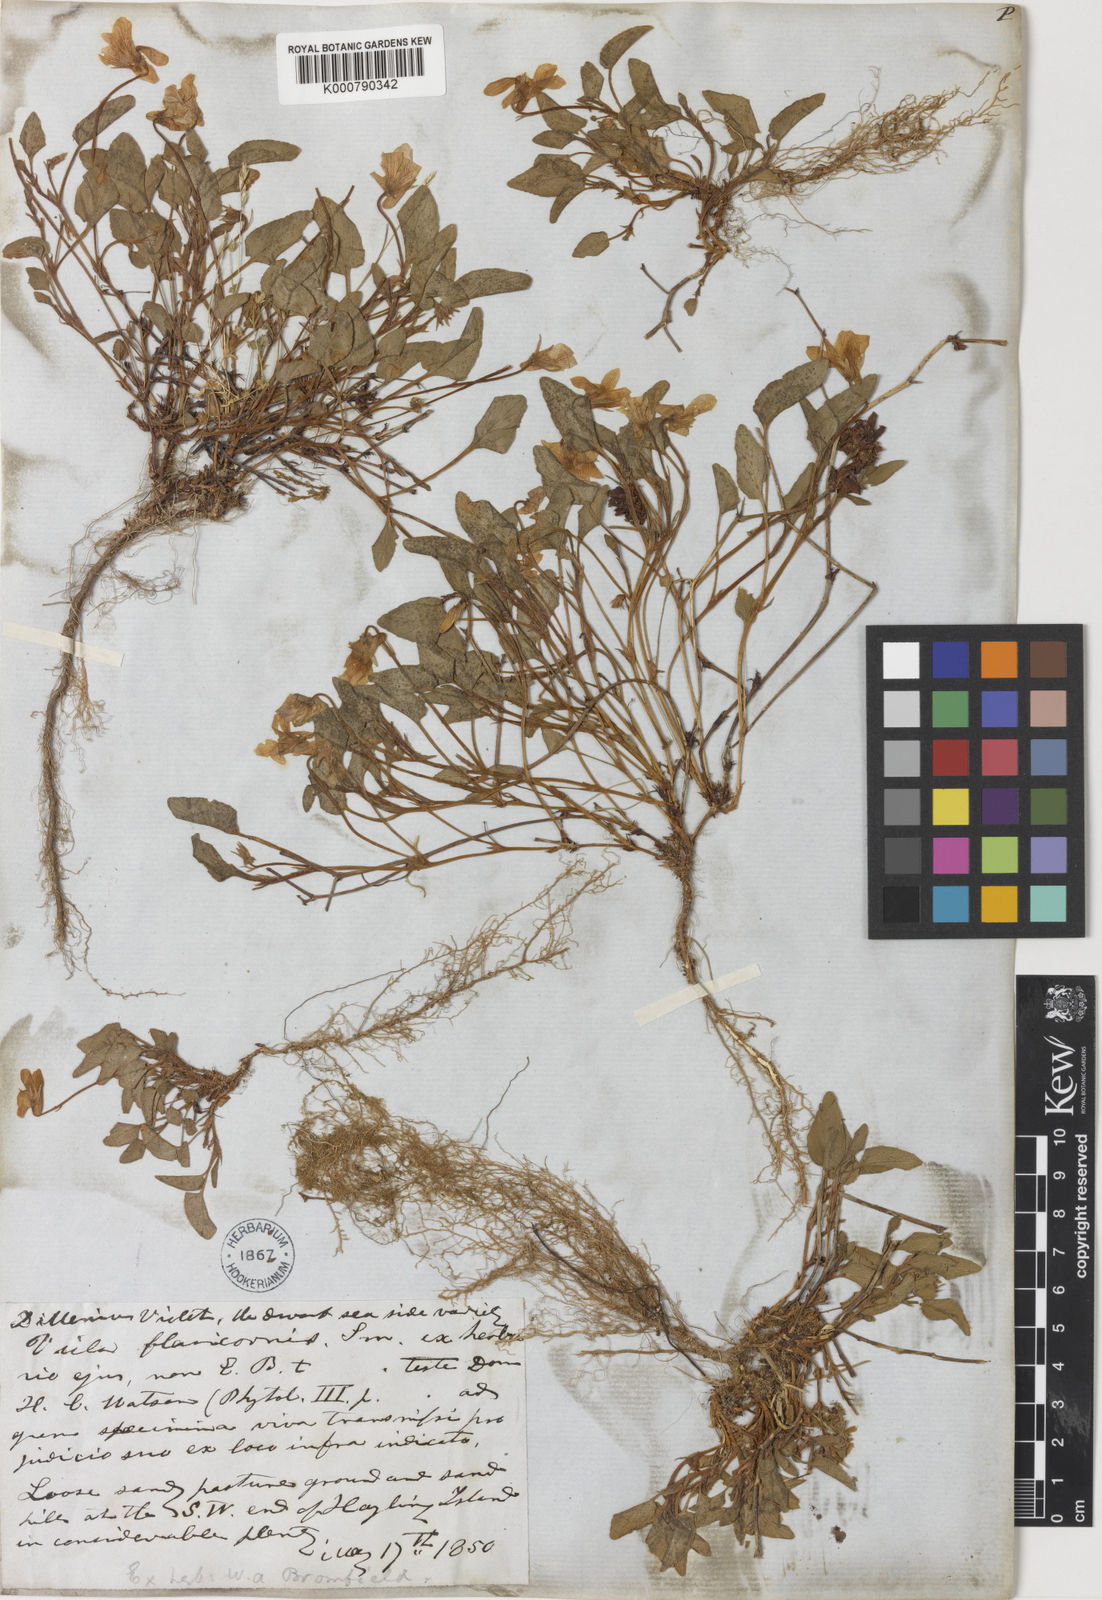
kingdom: Plantae
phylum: Tracheophyta
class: Magnoliopsida
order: Malpighiales
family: Violaceae
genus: Viola
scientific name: Viola lactea
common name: Pale dog-violet
